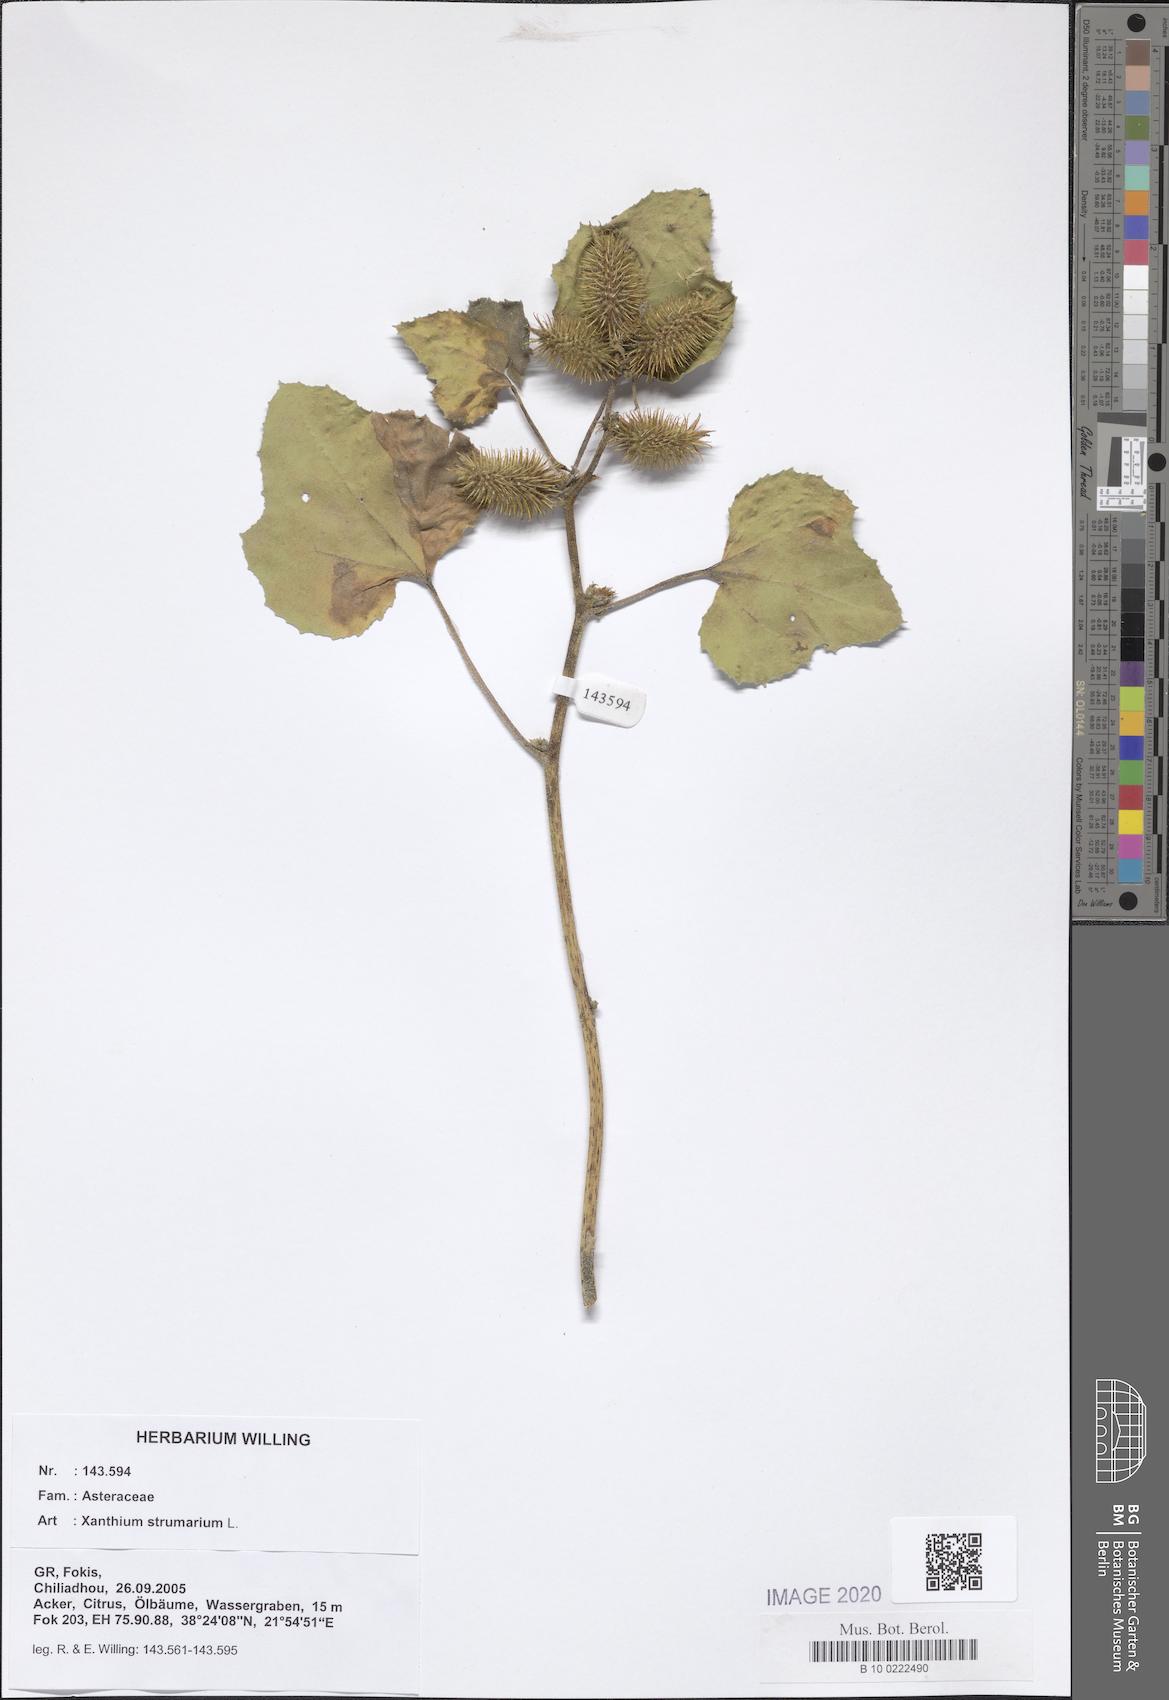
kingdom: Plantae
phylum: Tracheophyta
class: Magnoliopsida
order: Asterales
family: Asteraceae
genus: Xanthium
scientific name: Xanthium strumarium
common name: Rough cocklebur
